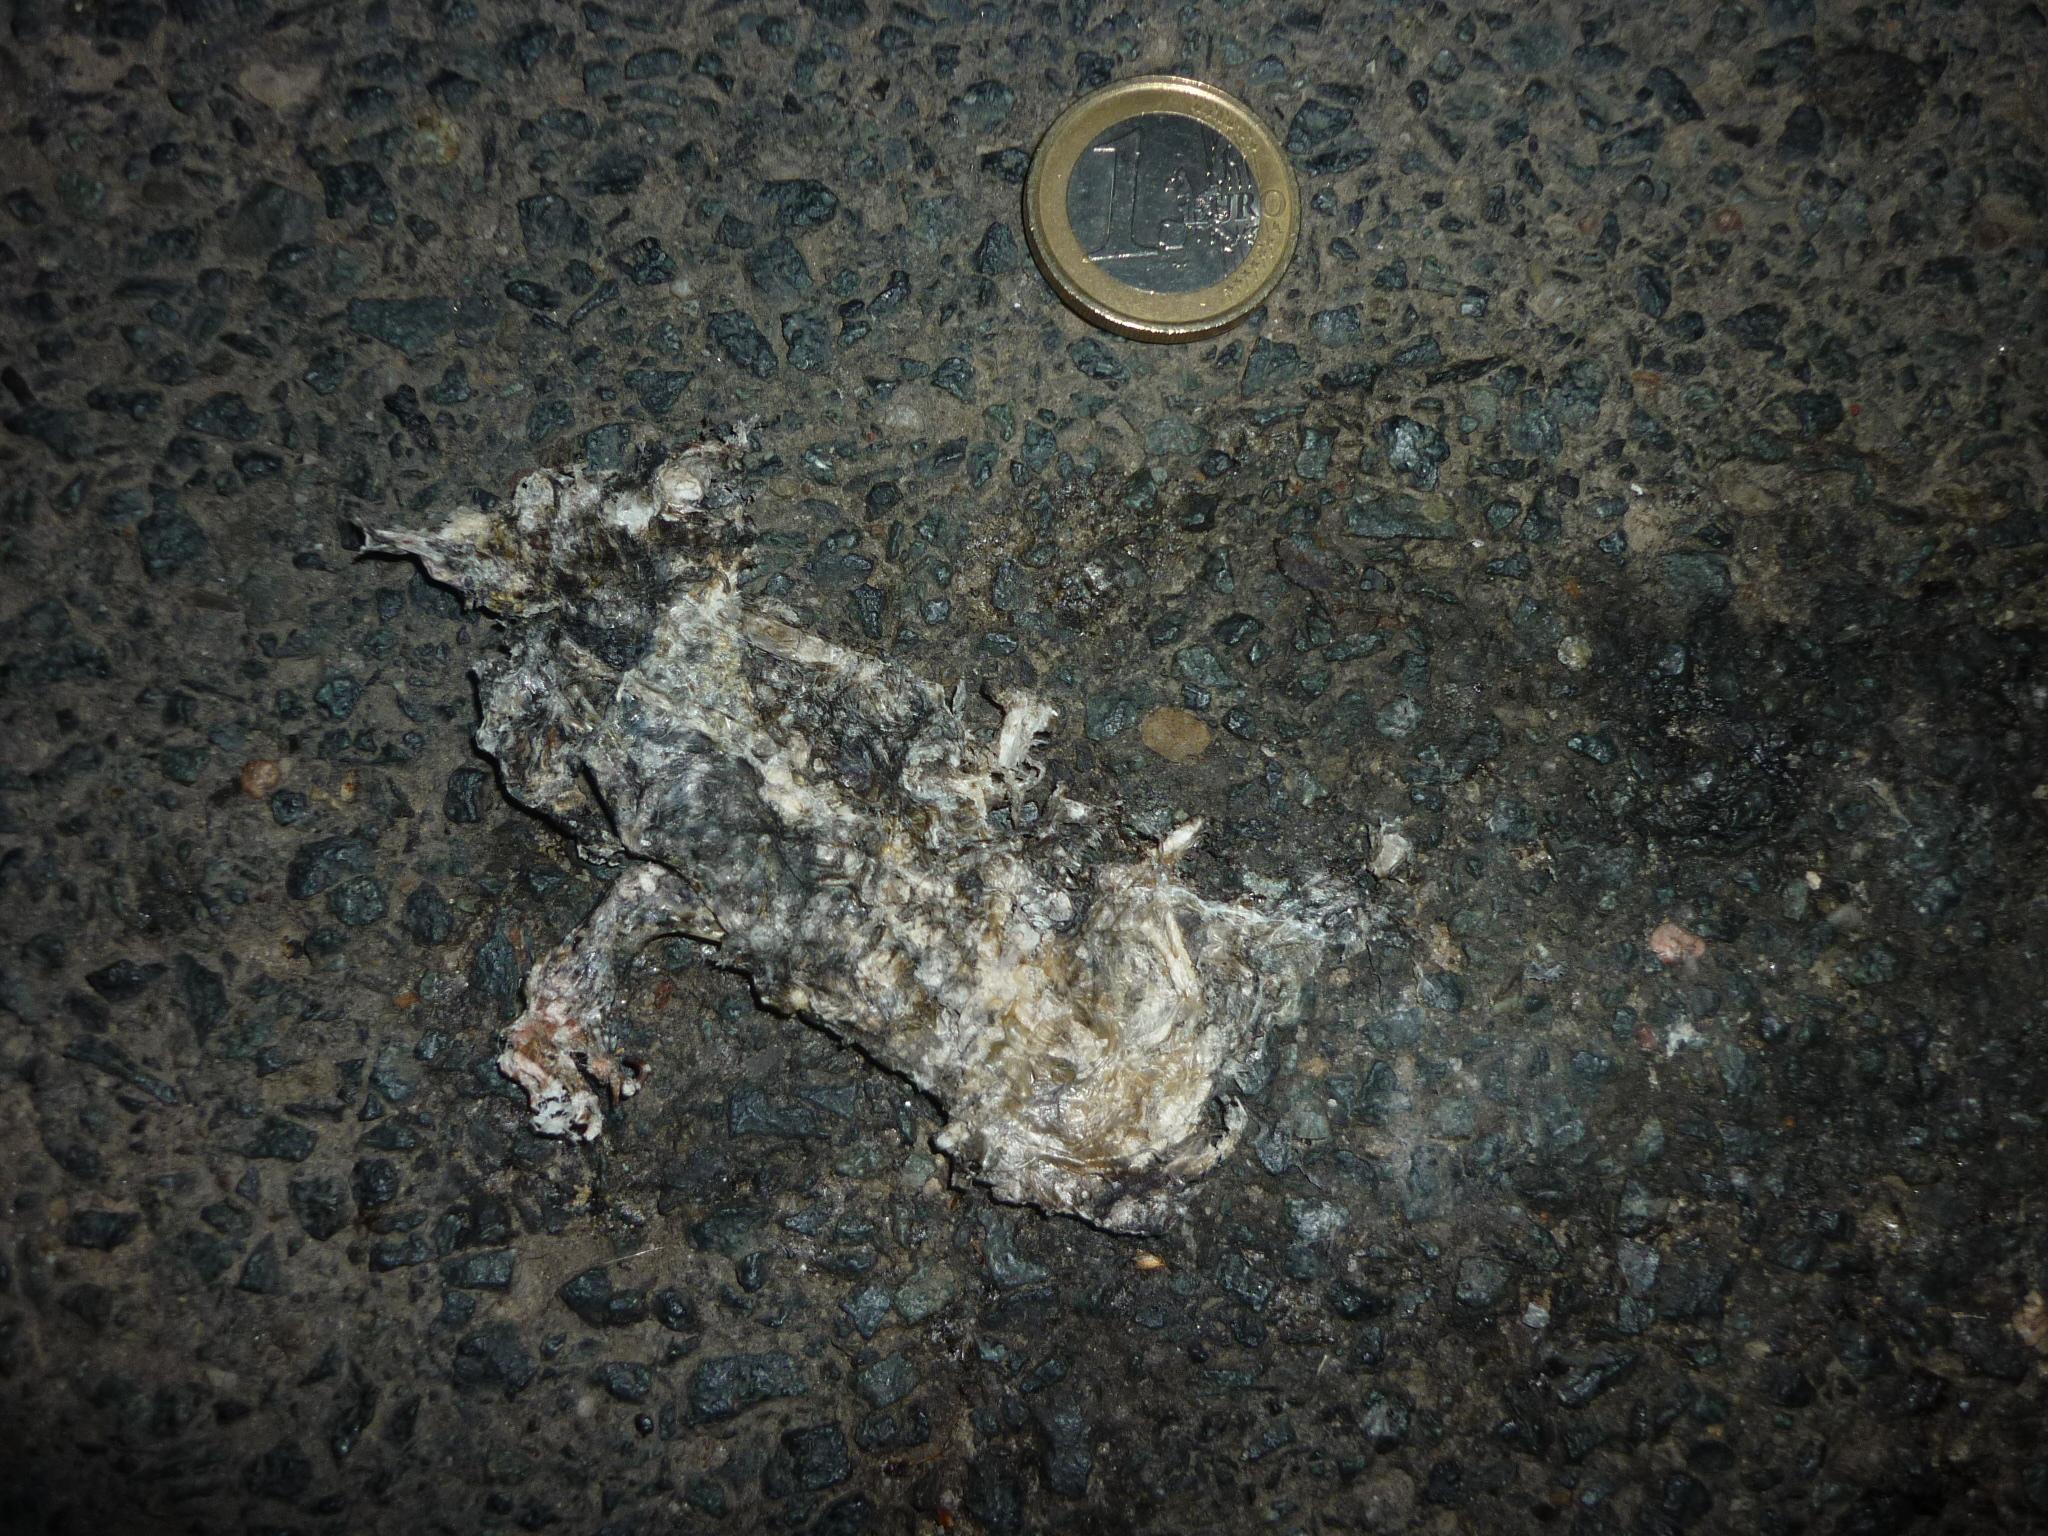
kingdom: Animalia
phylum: Chordata
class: Amphibia
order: Anura
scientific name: Anura
